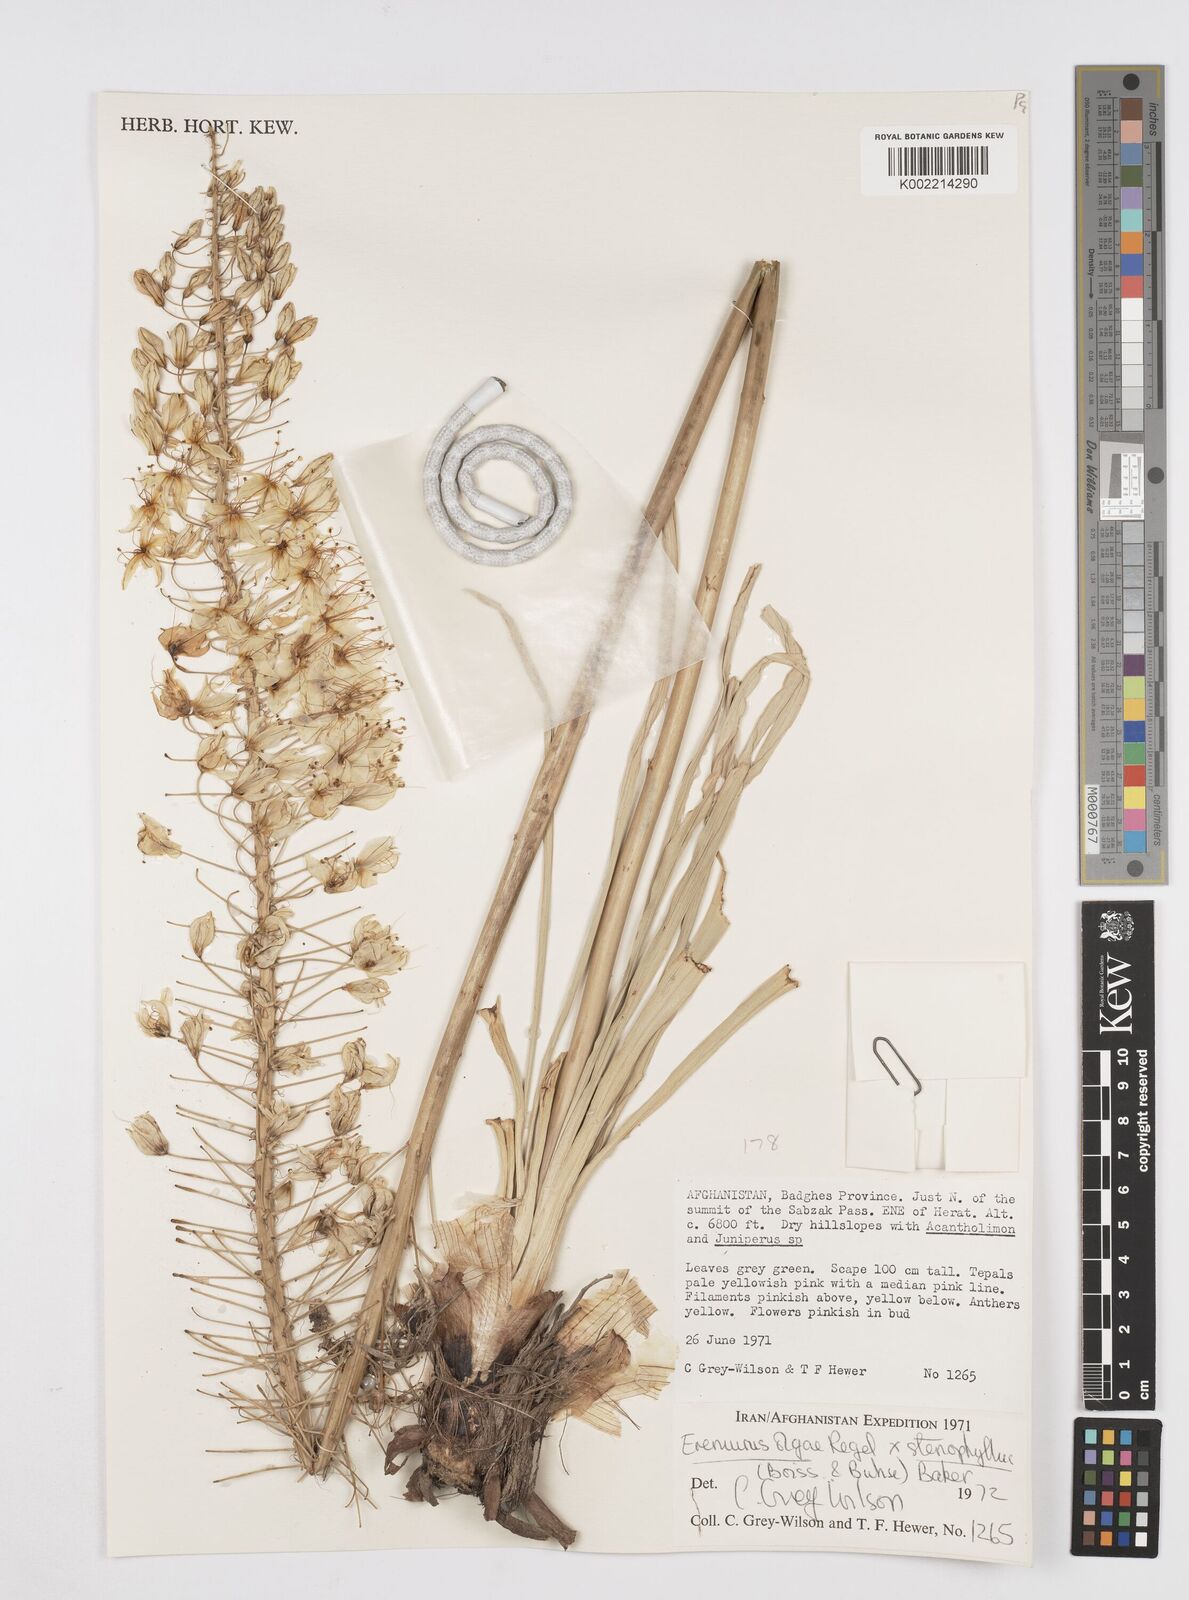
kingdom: Plantae
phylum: Tracheophyta
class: Liliopsida
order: Asparagales
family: Asphodelaceae
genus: Eremurus
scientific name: Eremurus olgae
